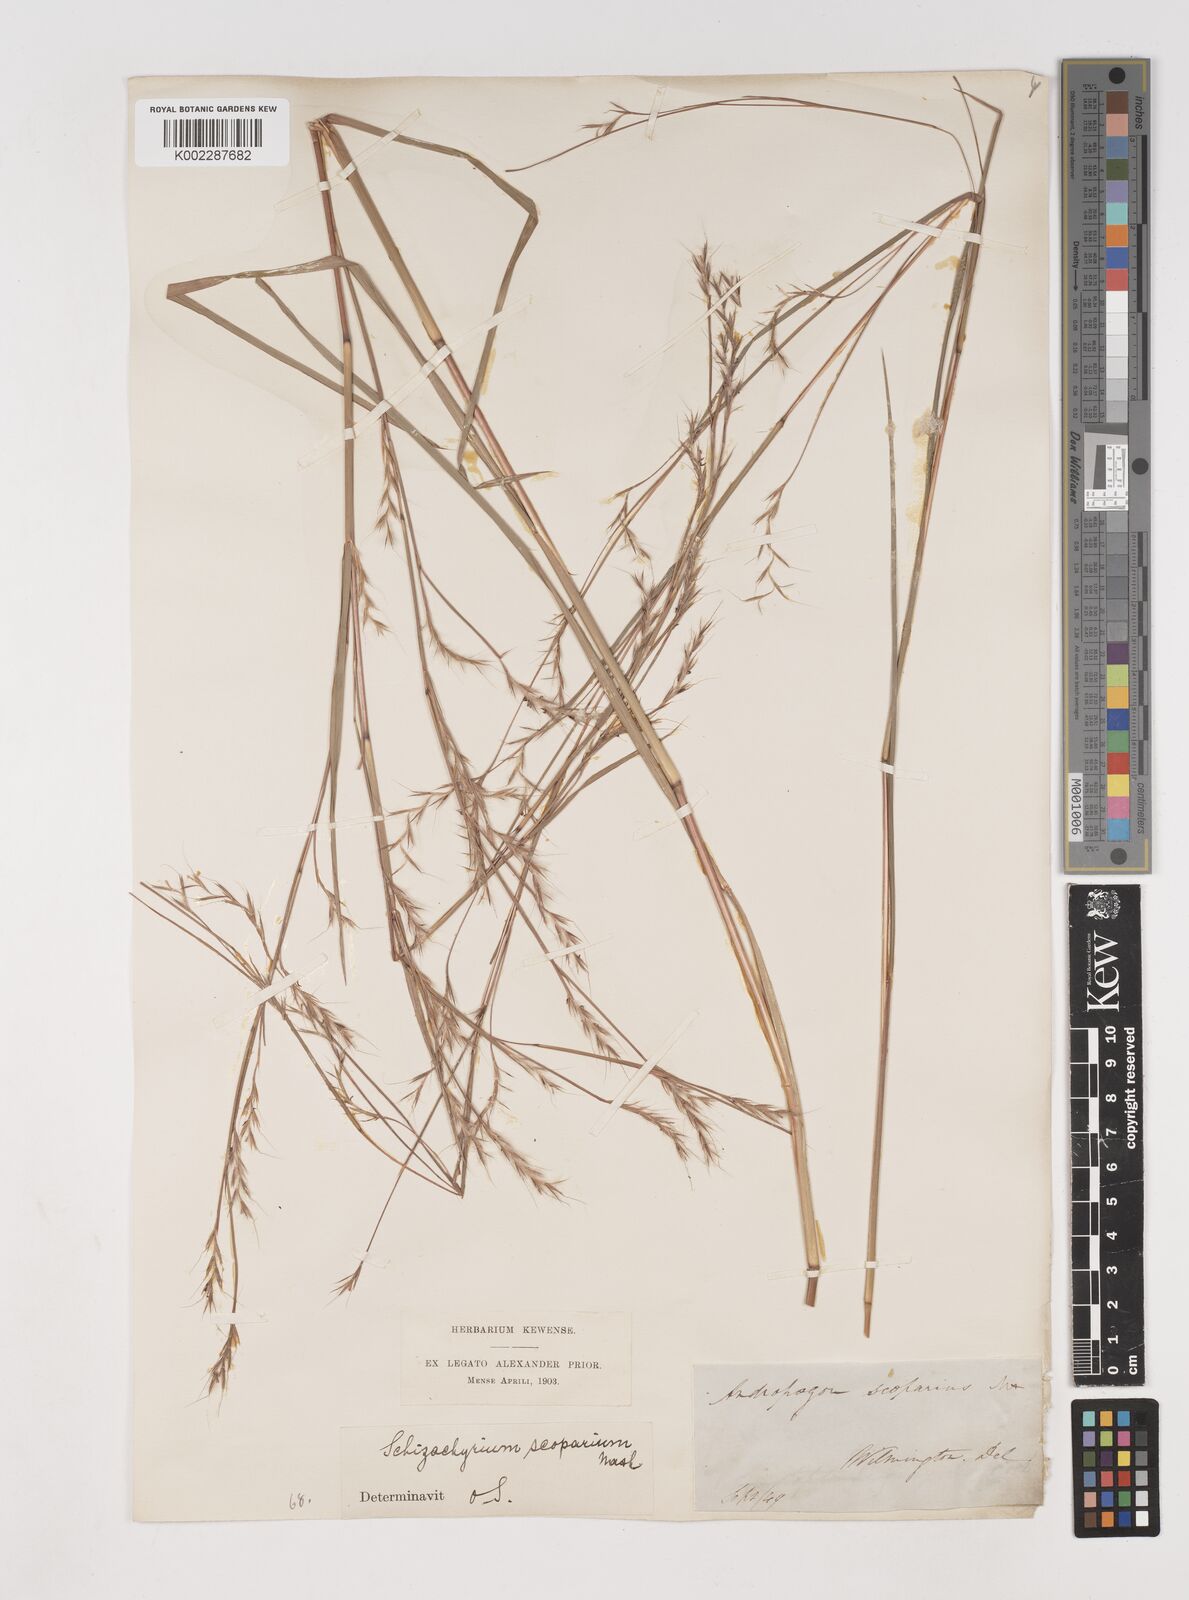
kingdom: Plantae
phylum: Tracheophyta
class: Liliopsida
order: Poales
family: Poaceae
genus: Schizachyrium
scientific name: Schizachyrium scoparium
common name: Little bluestem
